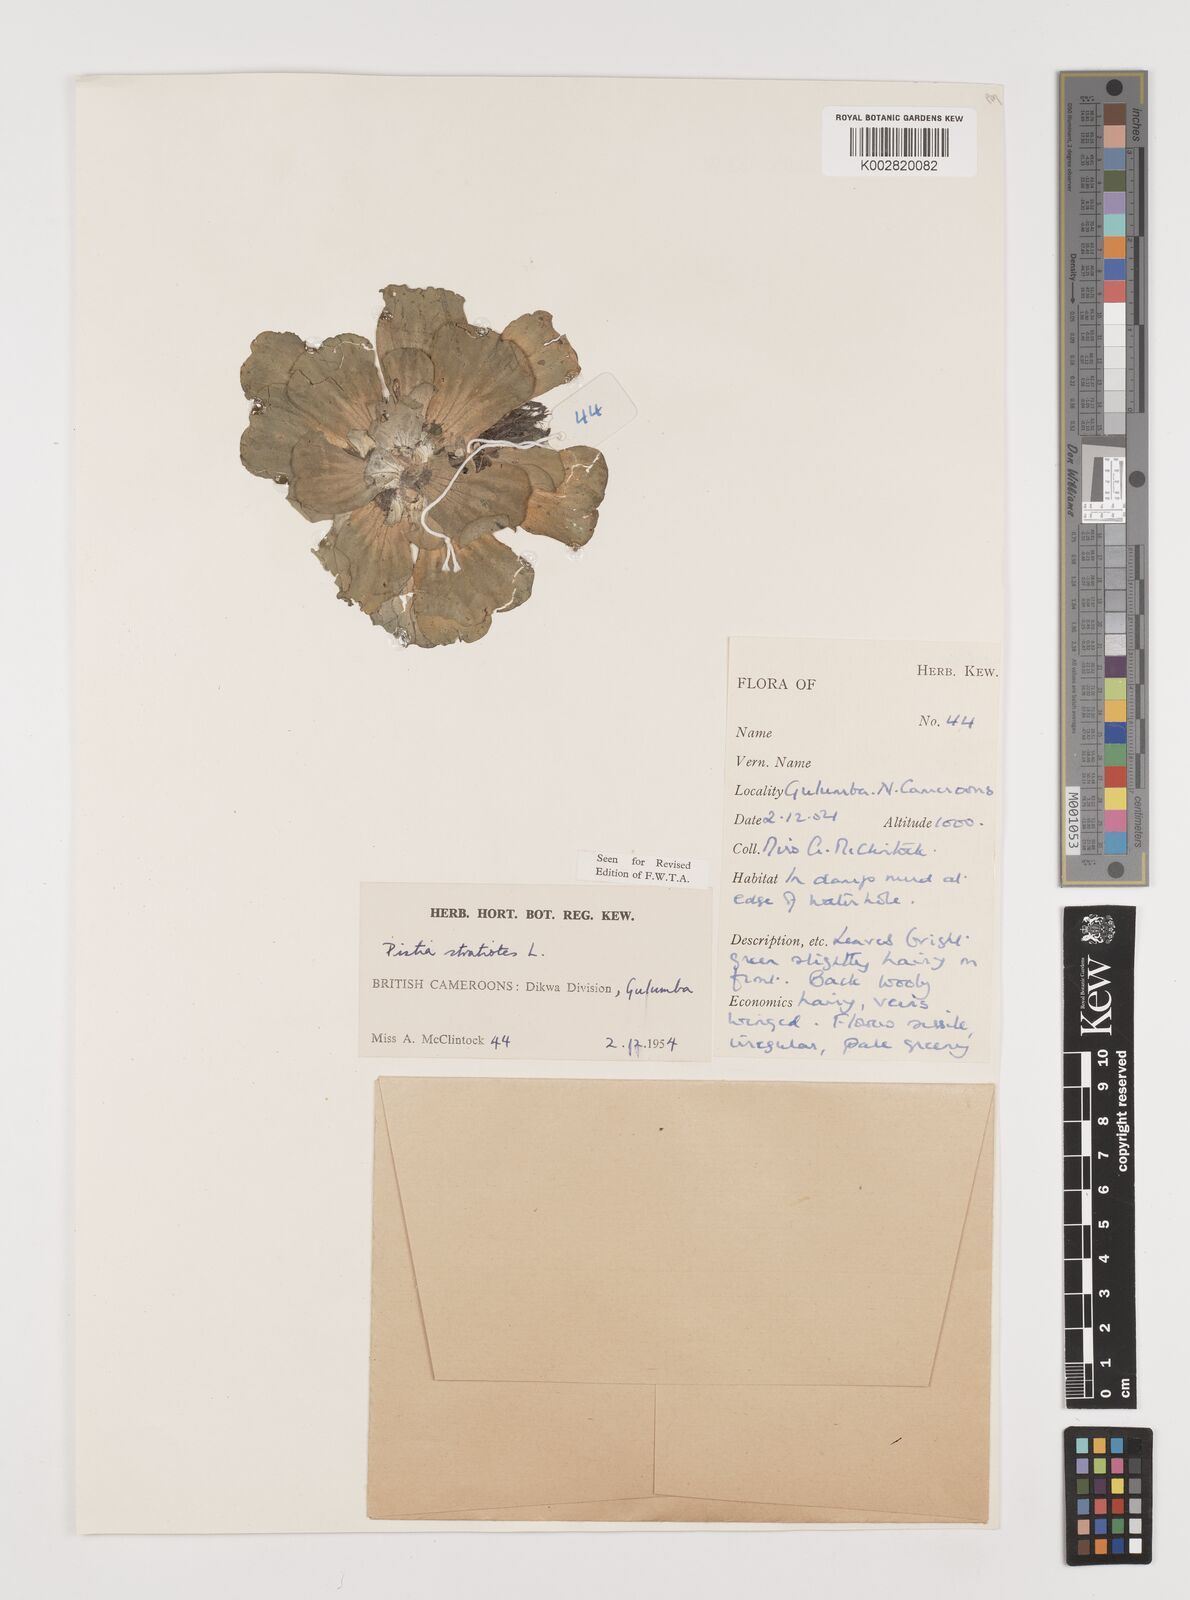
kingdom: Plantae
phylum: Tracheophyta
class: Liliopsida
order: Alismatales
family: Araceae
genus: Pistia
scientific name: Pistia stratiotes
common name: Water lettuce
